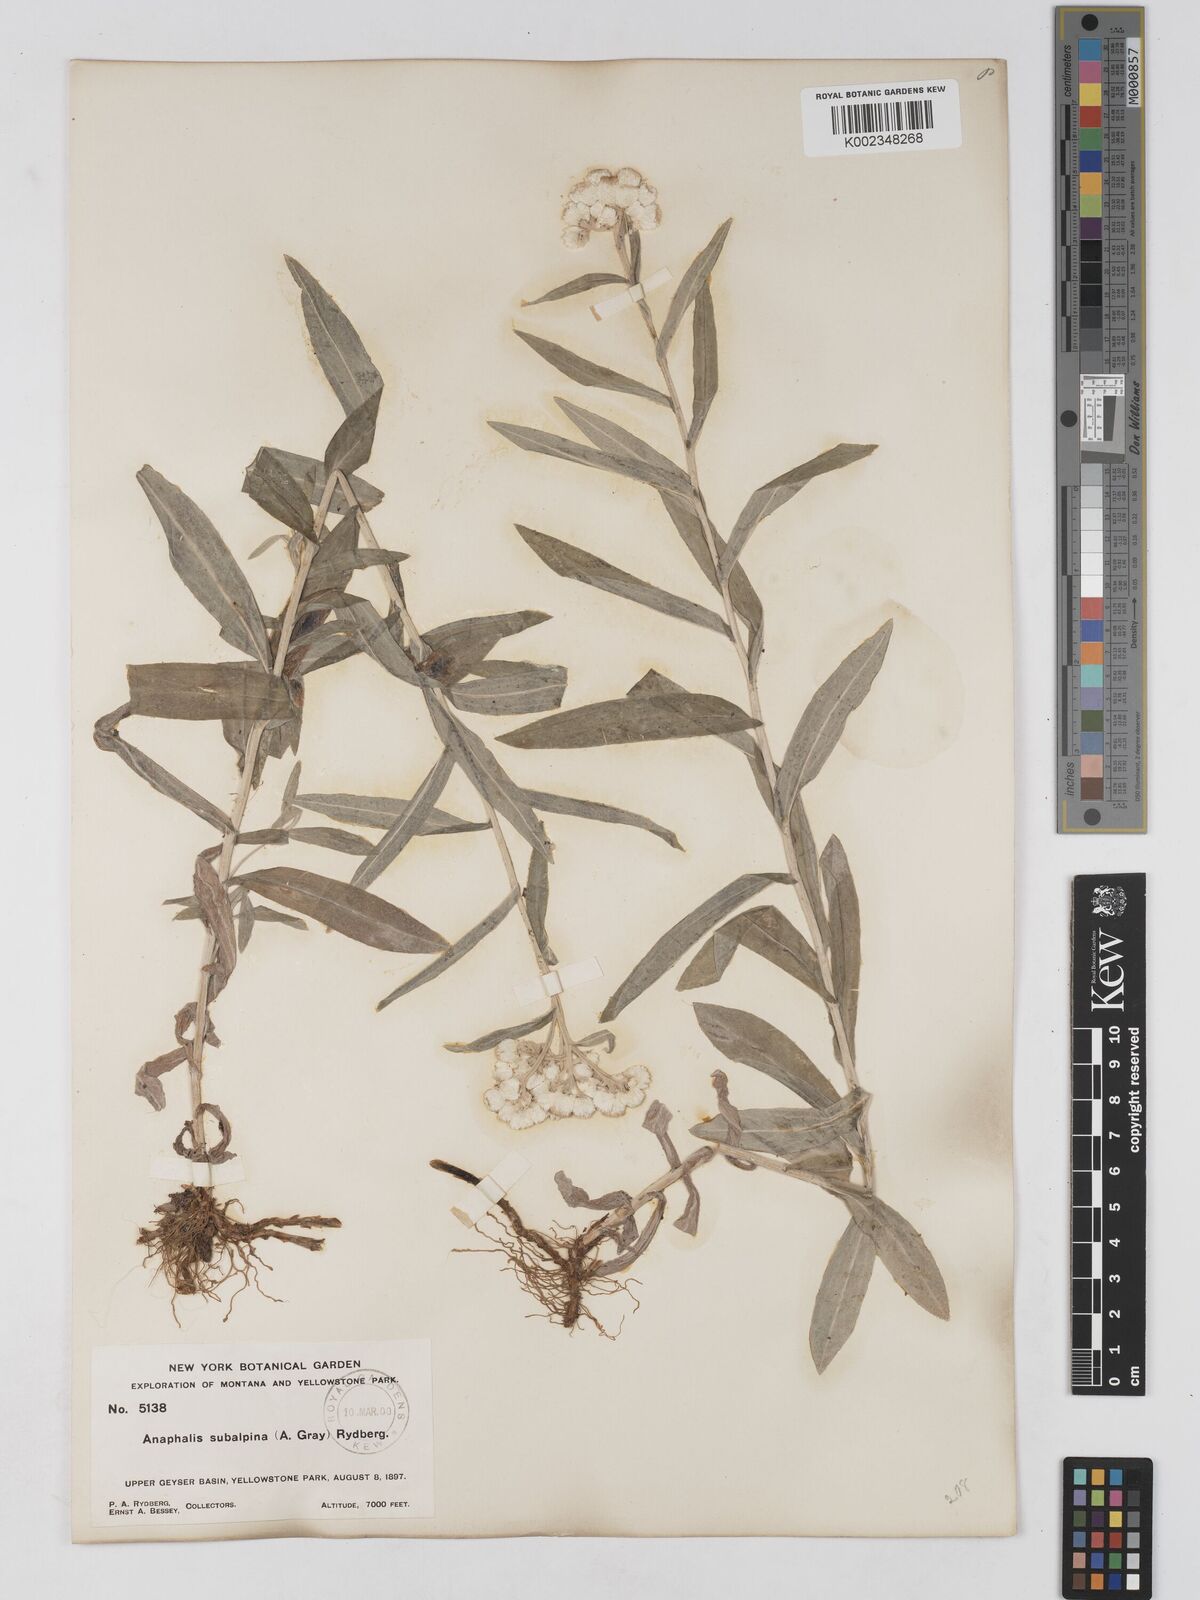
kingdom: Plantae
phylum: Tracheophyta
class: Magnoliopsida
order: Asterales
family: Asteraceae
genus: Anaphalis
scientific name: Anaphalis margaritacea
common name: Pearly everlasting
